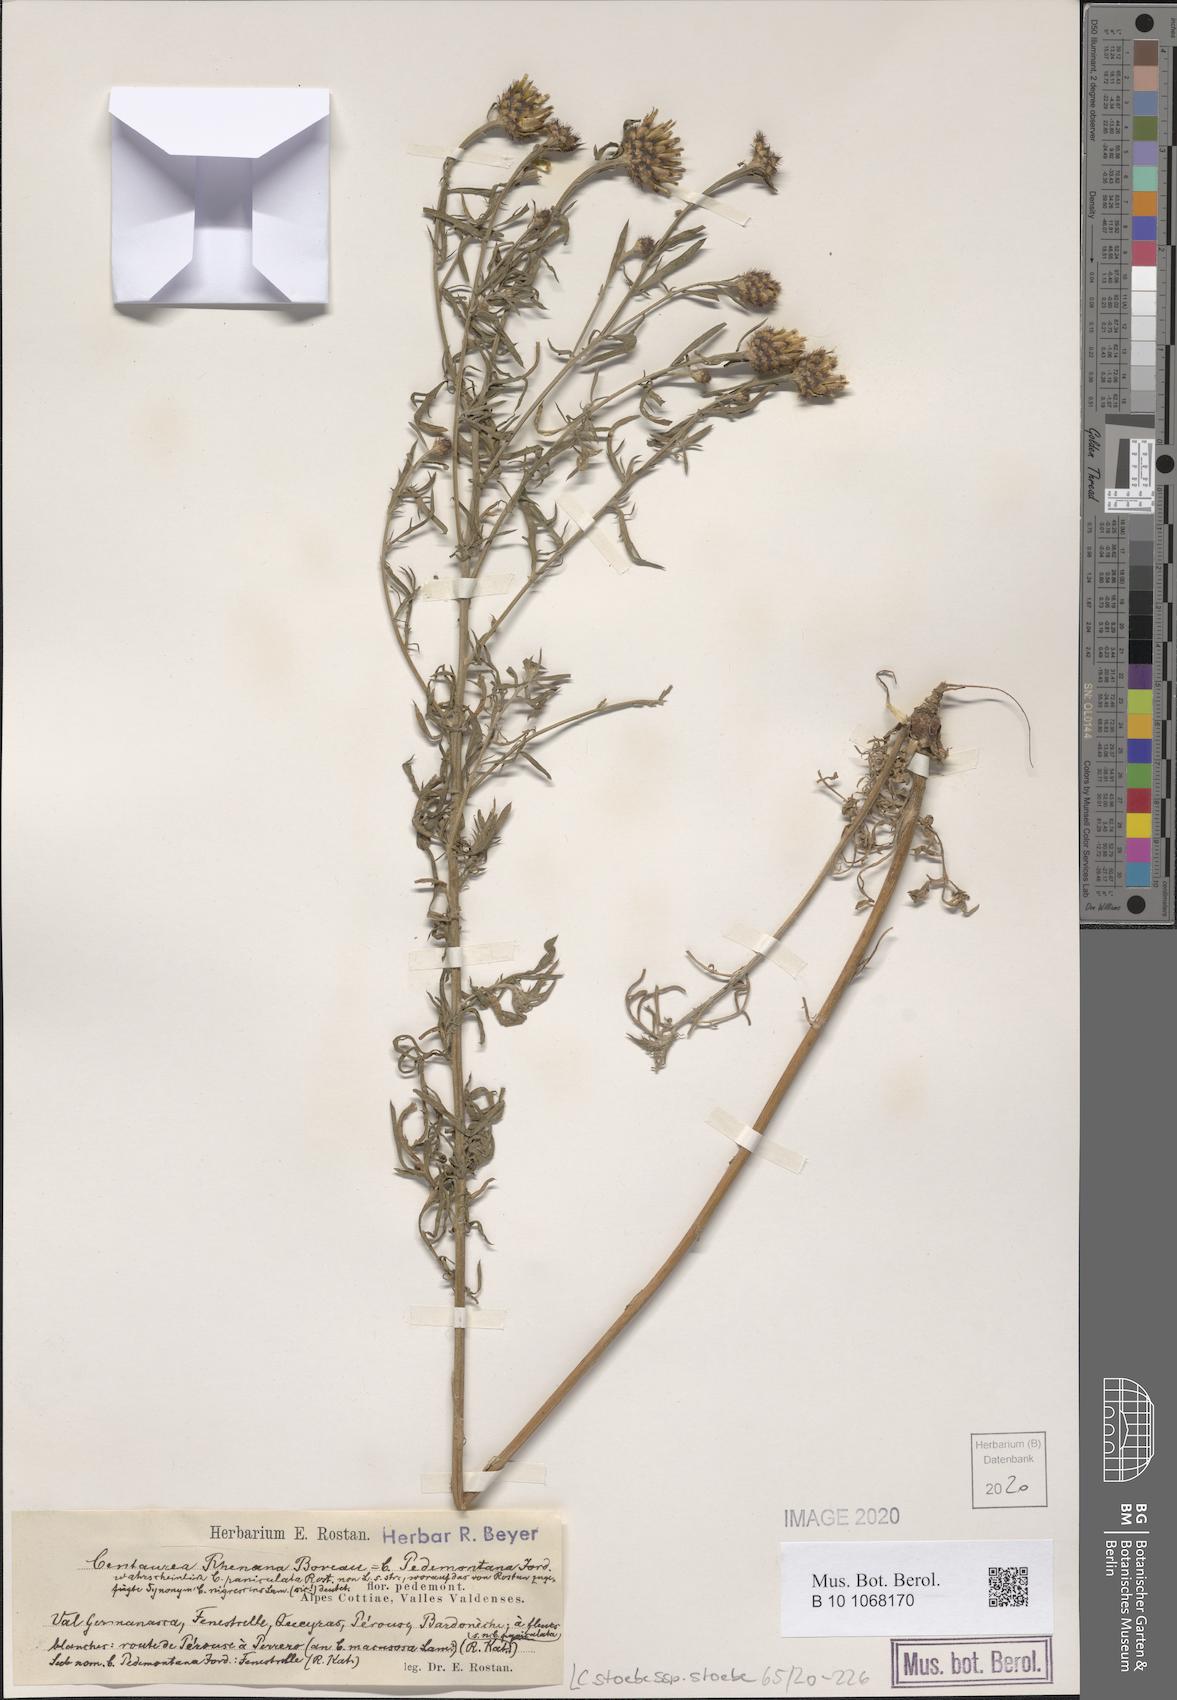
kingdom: Plantae
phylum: Tracheophyta
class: Magnoliopsida
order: Asterales
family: Asteraceae
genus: Centaurea
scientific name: Centaurea stoebe
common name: Spotted knapweed
